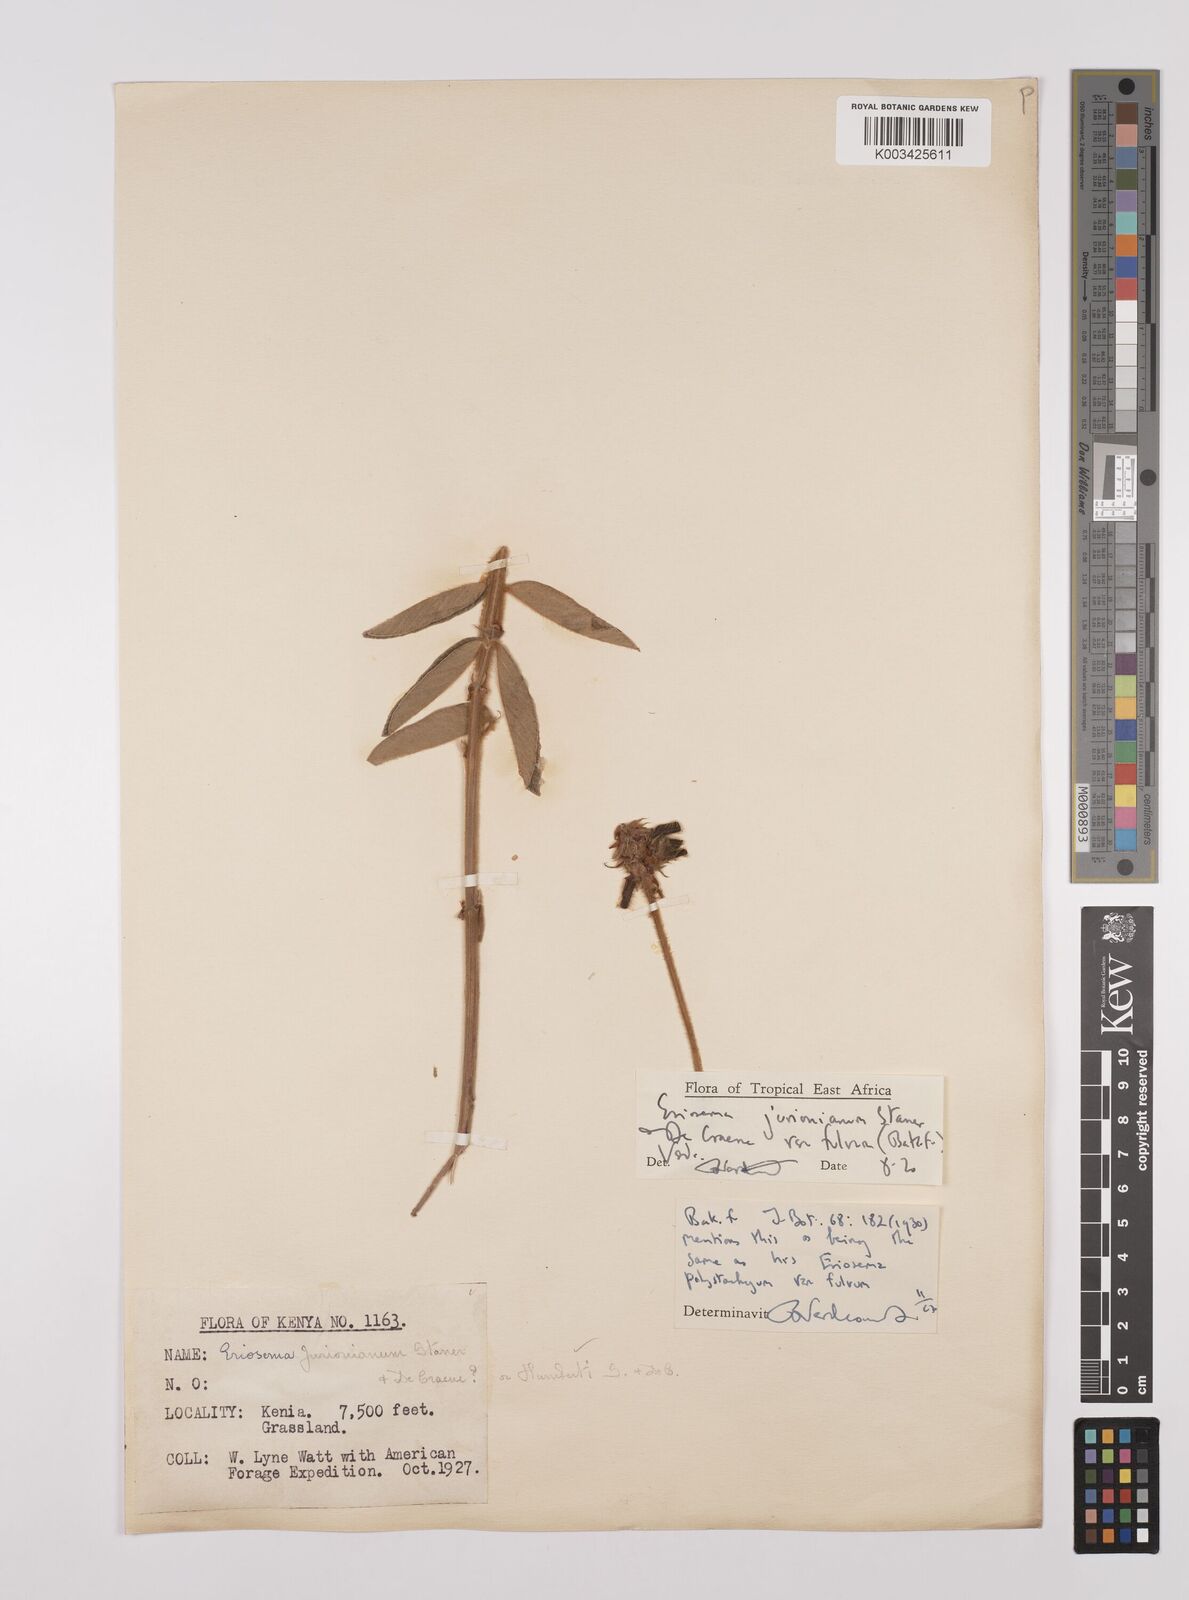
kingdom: Plantae
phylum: Tracheophyta
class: Magnoliopsida
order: Fabales
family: Fabaceae
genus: Eriosema
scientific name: Eriosema jurionianum
